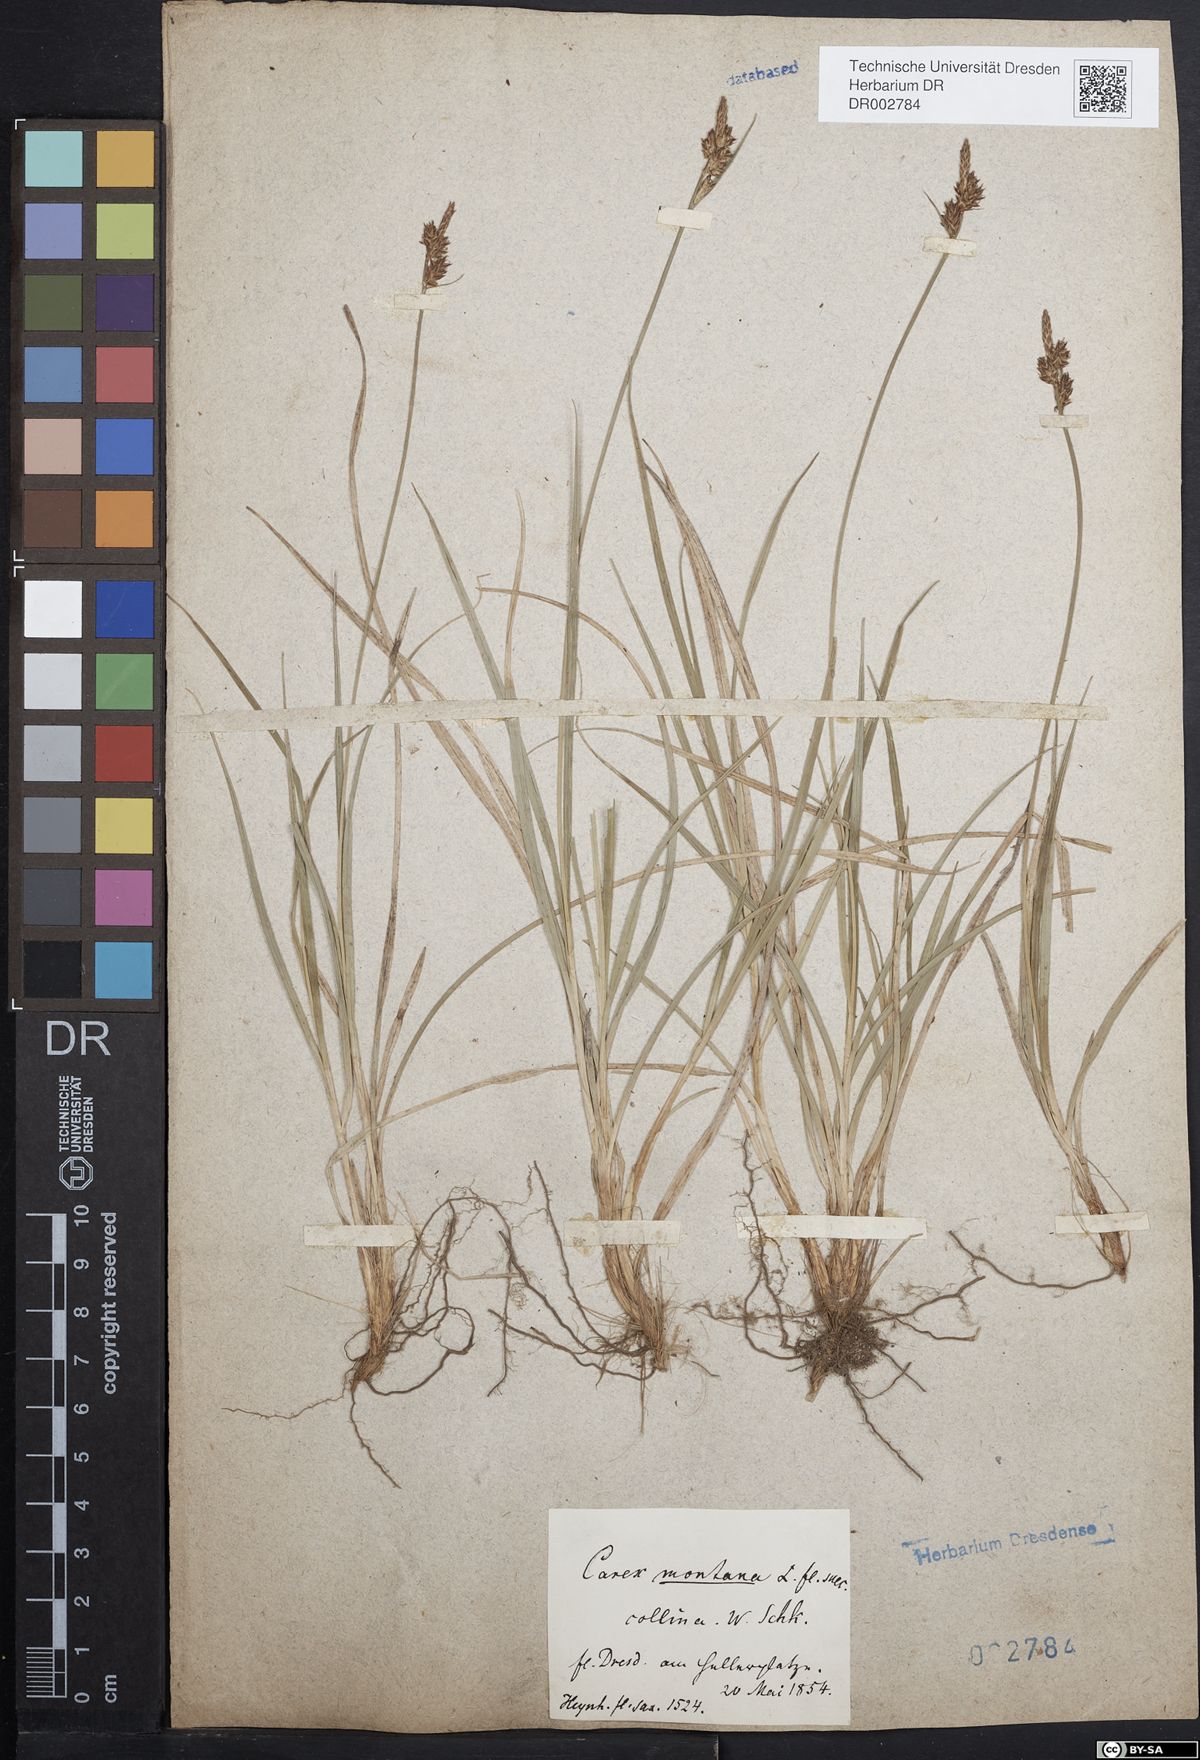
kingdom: Plantae
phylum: Tracheophyta
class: Liliopsida
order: Poales
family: Cyperaceae
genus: Carex
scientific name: Carex montana
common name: Soft-leaved sedge
